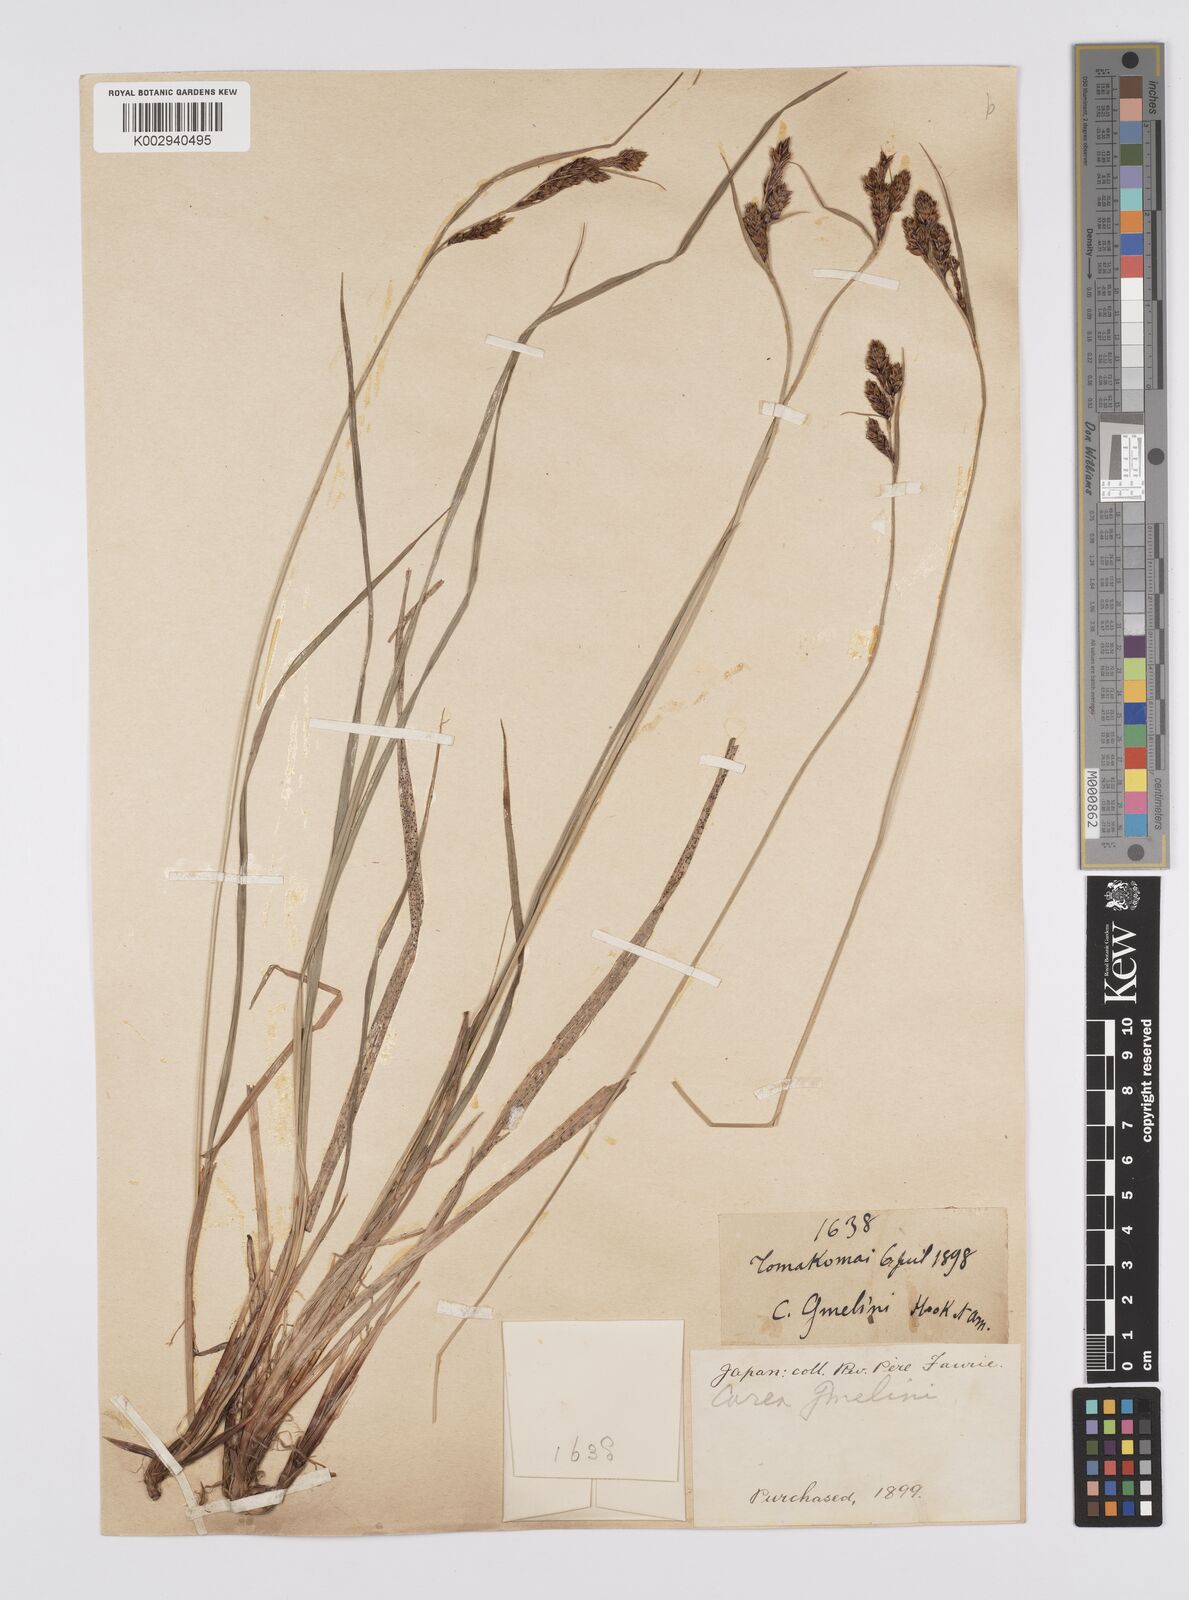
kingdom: Plantae
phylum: Tracheophyta
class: Liliopsida
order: Poales
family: Cyperaceae
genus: Carex
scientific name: Carex gmelinii
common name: Gmelin's sedge
